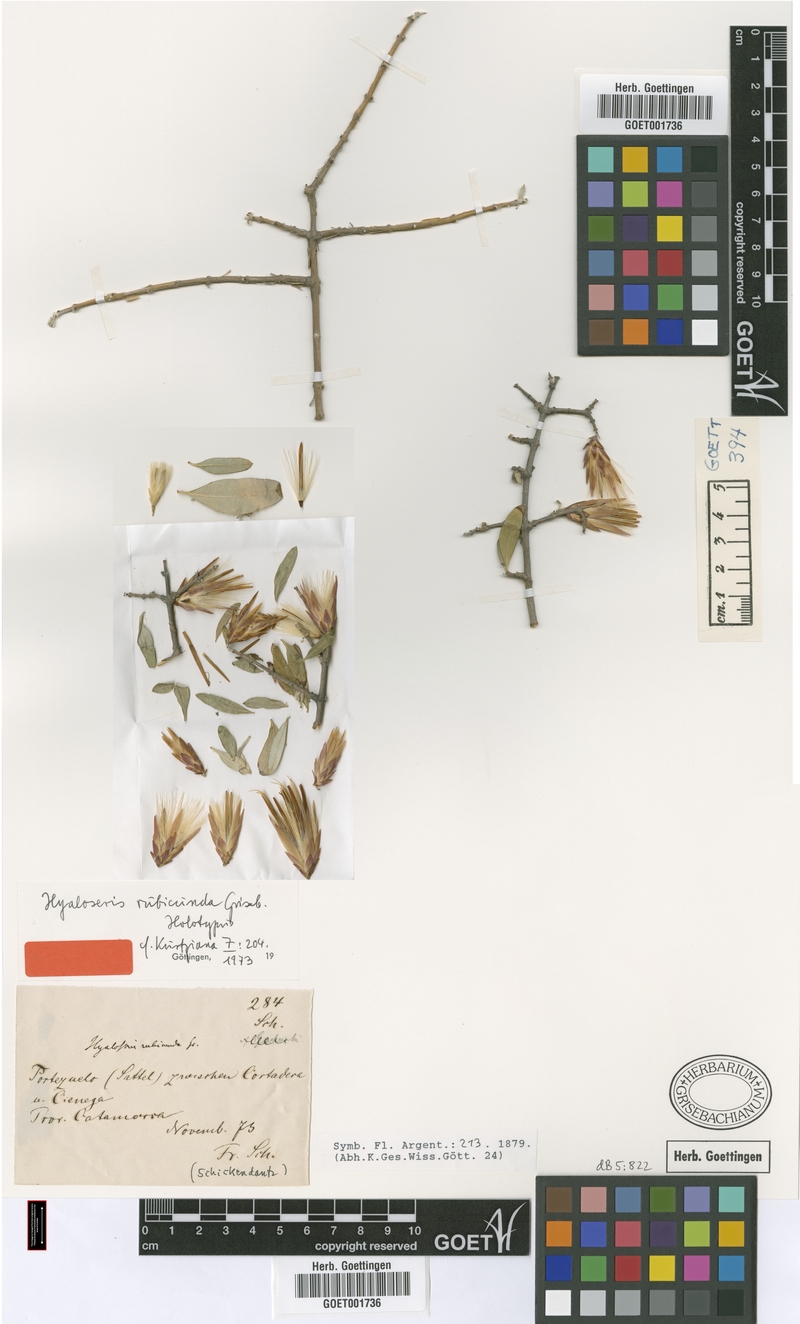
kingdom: Plantae
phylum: Tracheophyta
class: Magnoliopsida
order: Asterales
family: Asteraceae
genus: Hyaloseris
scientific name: Hyaloseris rubicunda
